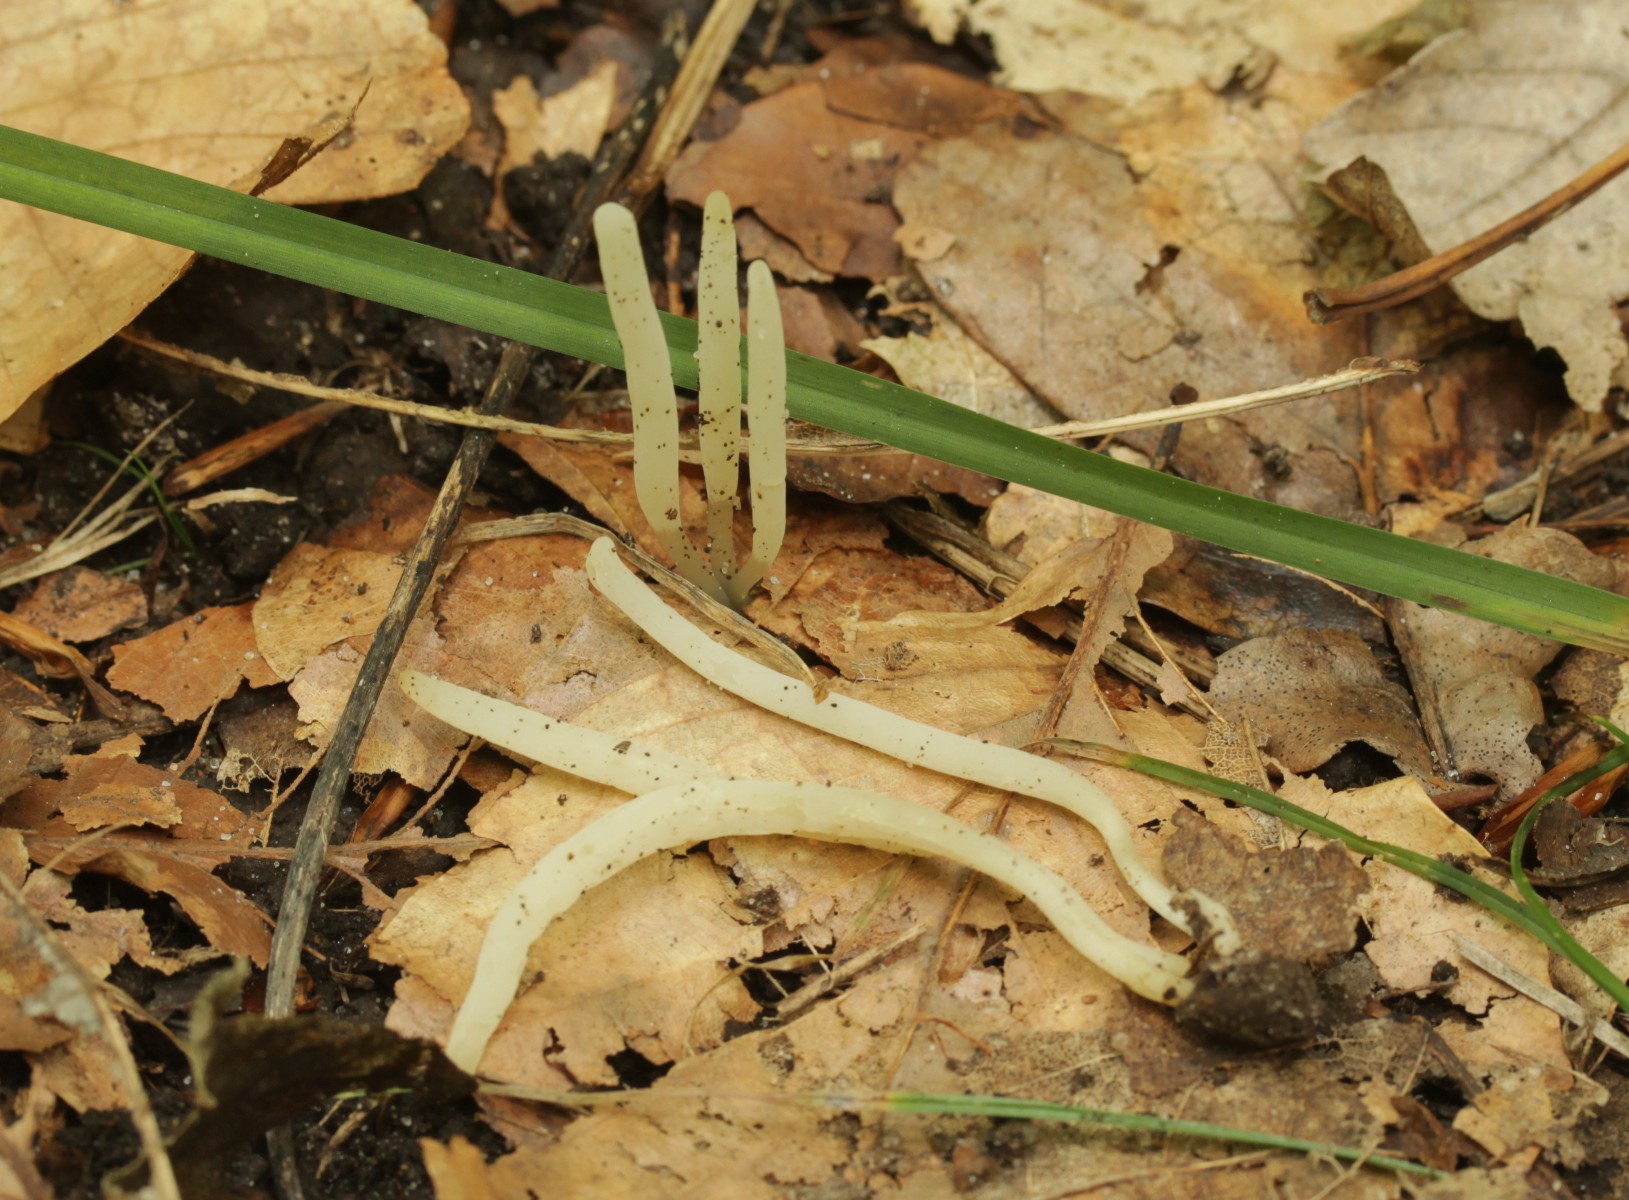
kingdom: Fungi
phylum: Basidiomycota
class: Agaricomycetes
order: Agaricales
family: Clavariaceae
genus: Clavaria
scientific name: Clavaria falcata
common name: hvid køllesvamp
